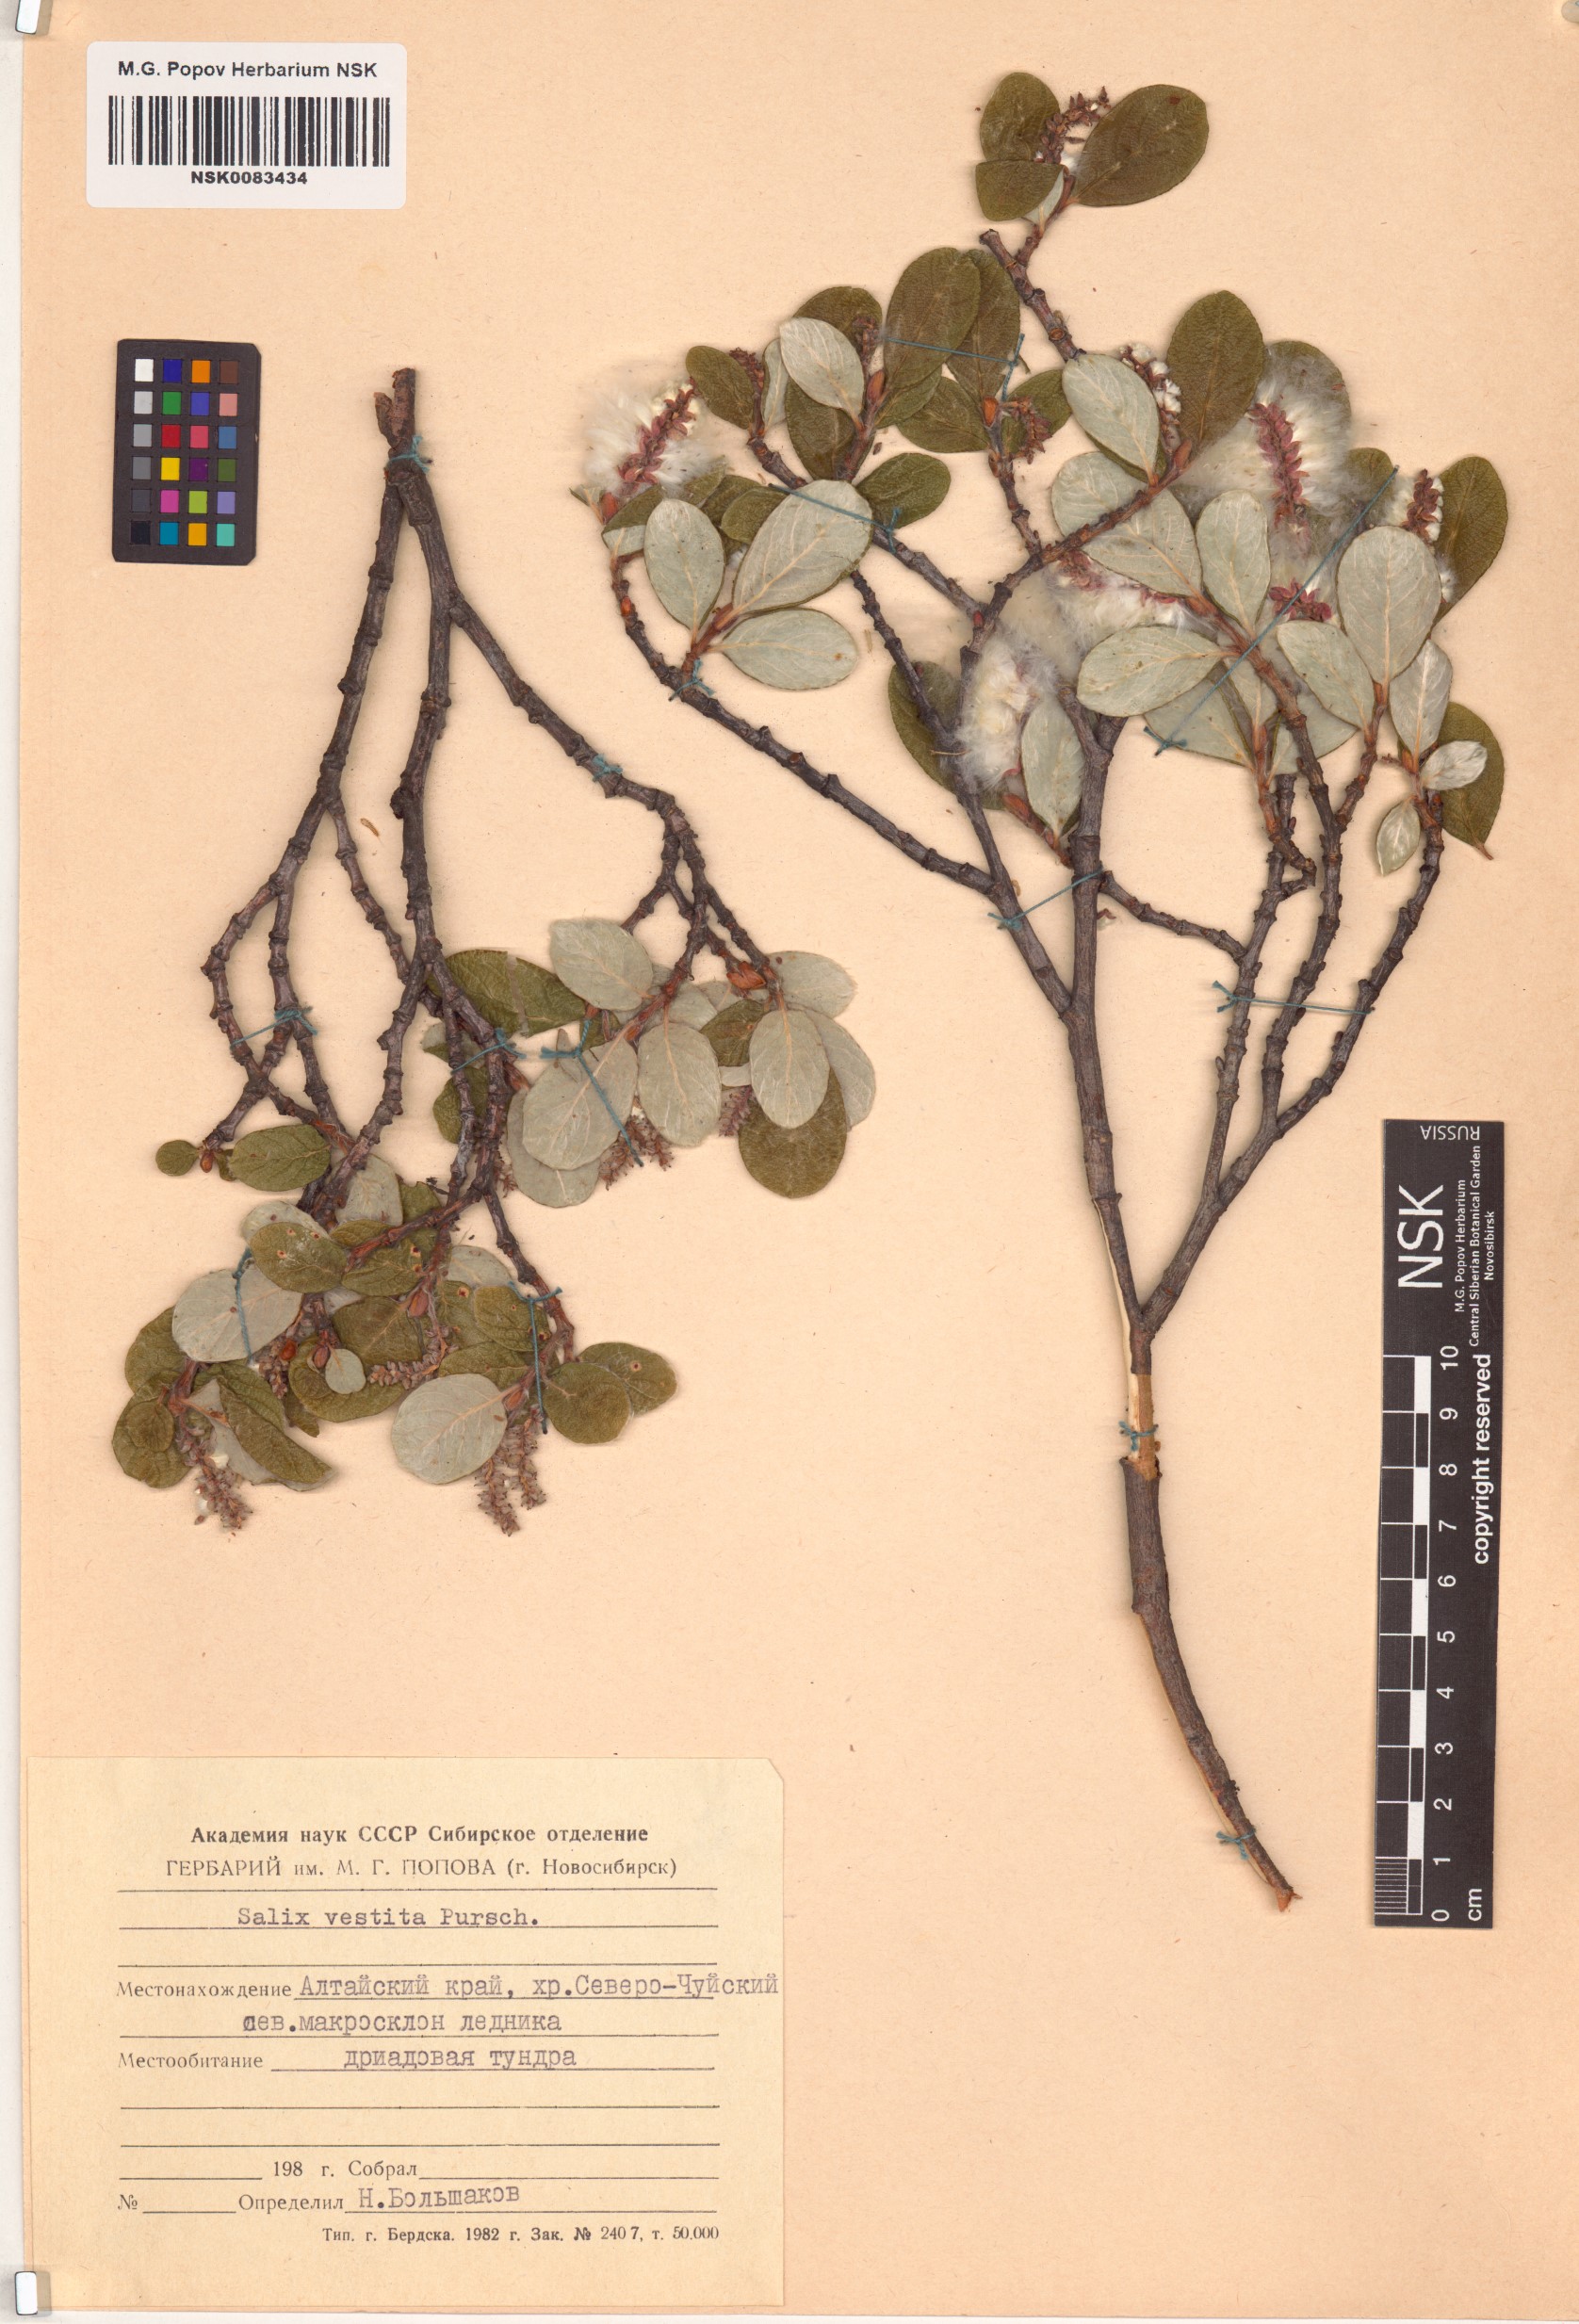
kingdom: Plantae
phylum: Tracheophyta
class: Magnoliopsida
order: Malpighiales
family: Salicaceae
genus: Salix
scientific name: Salix vestita
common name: Hairy willow
